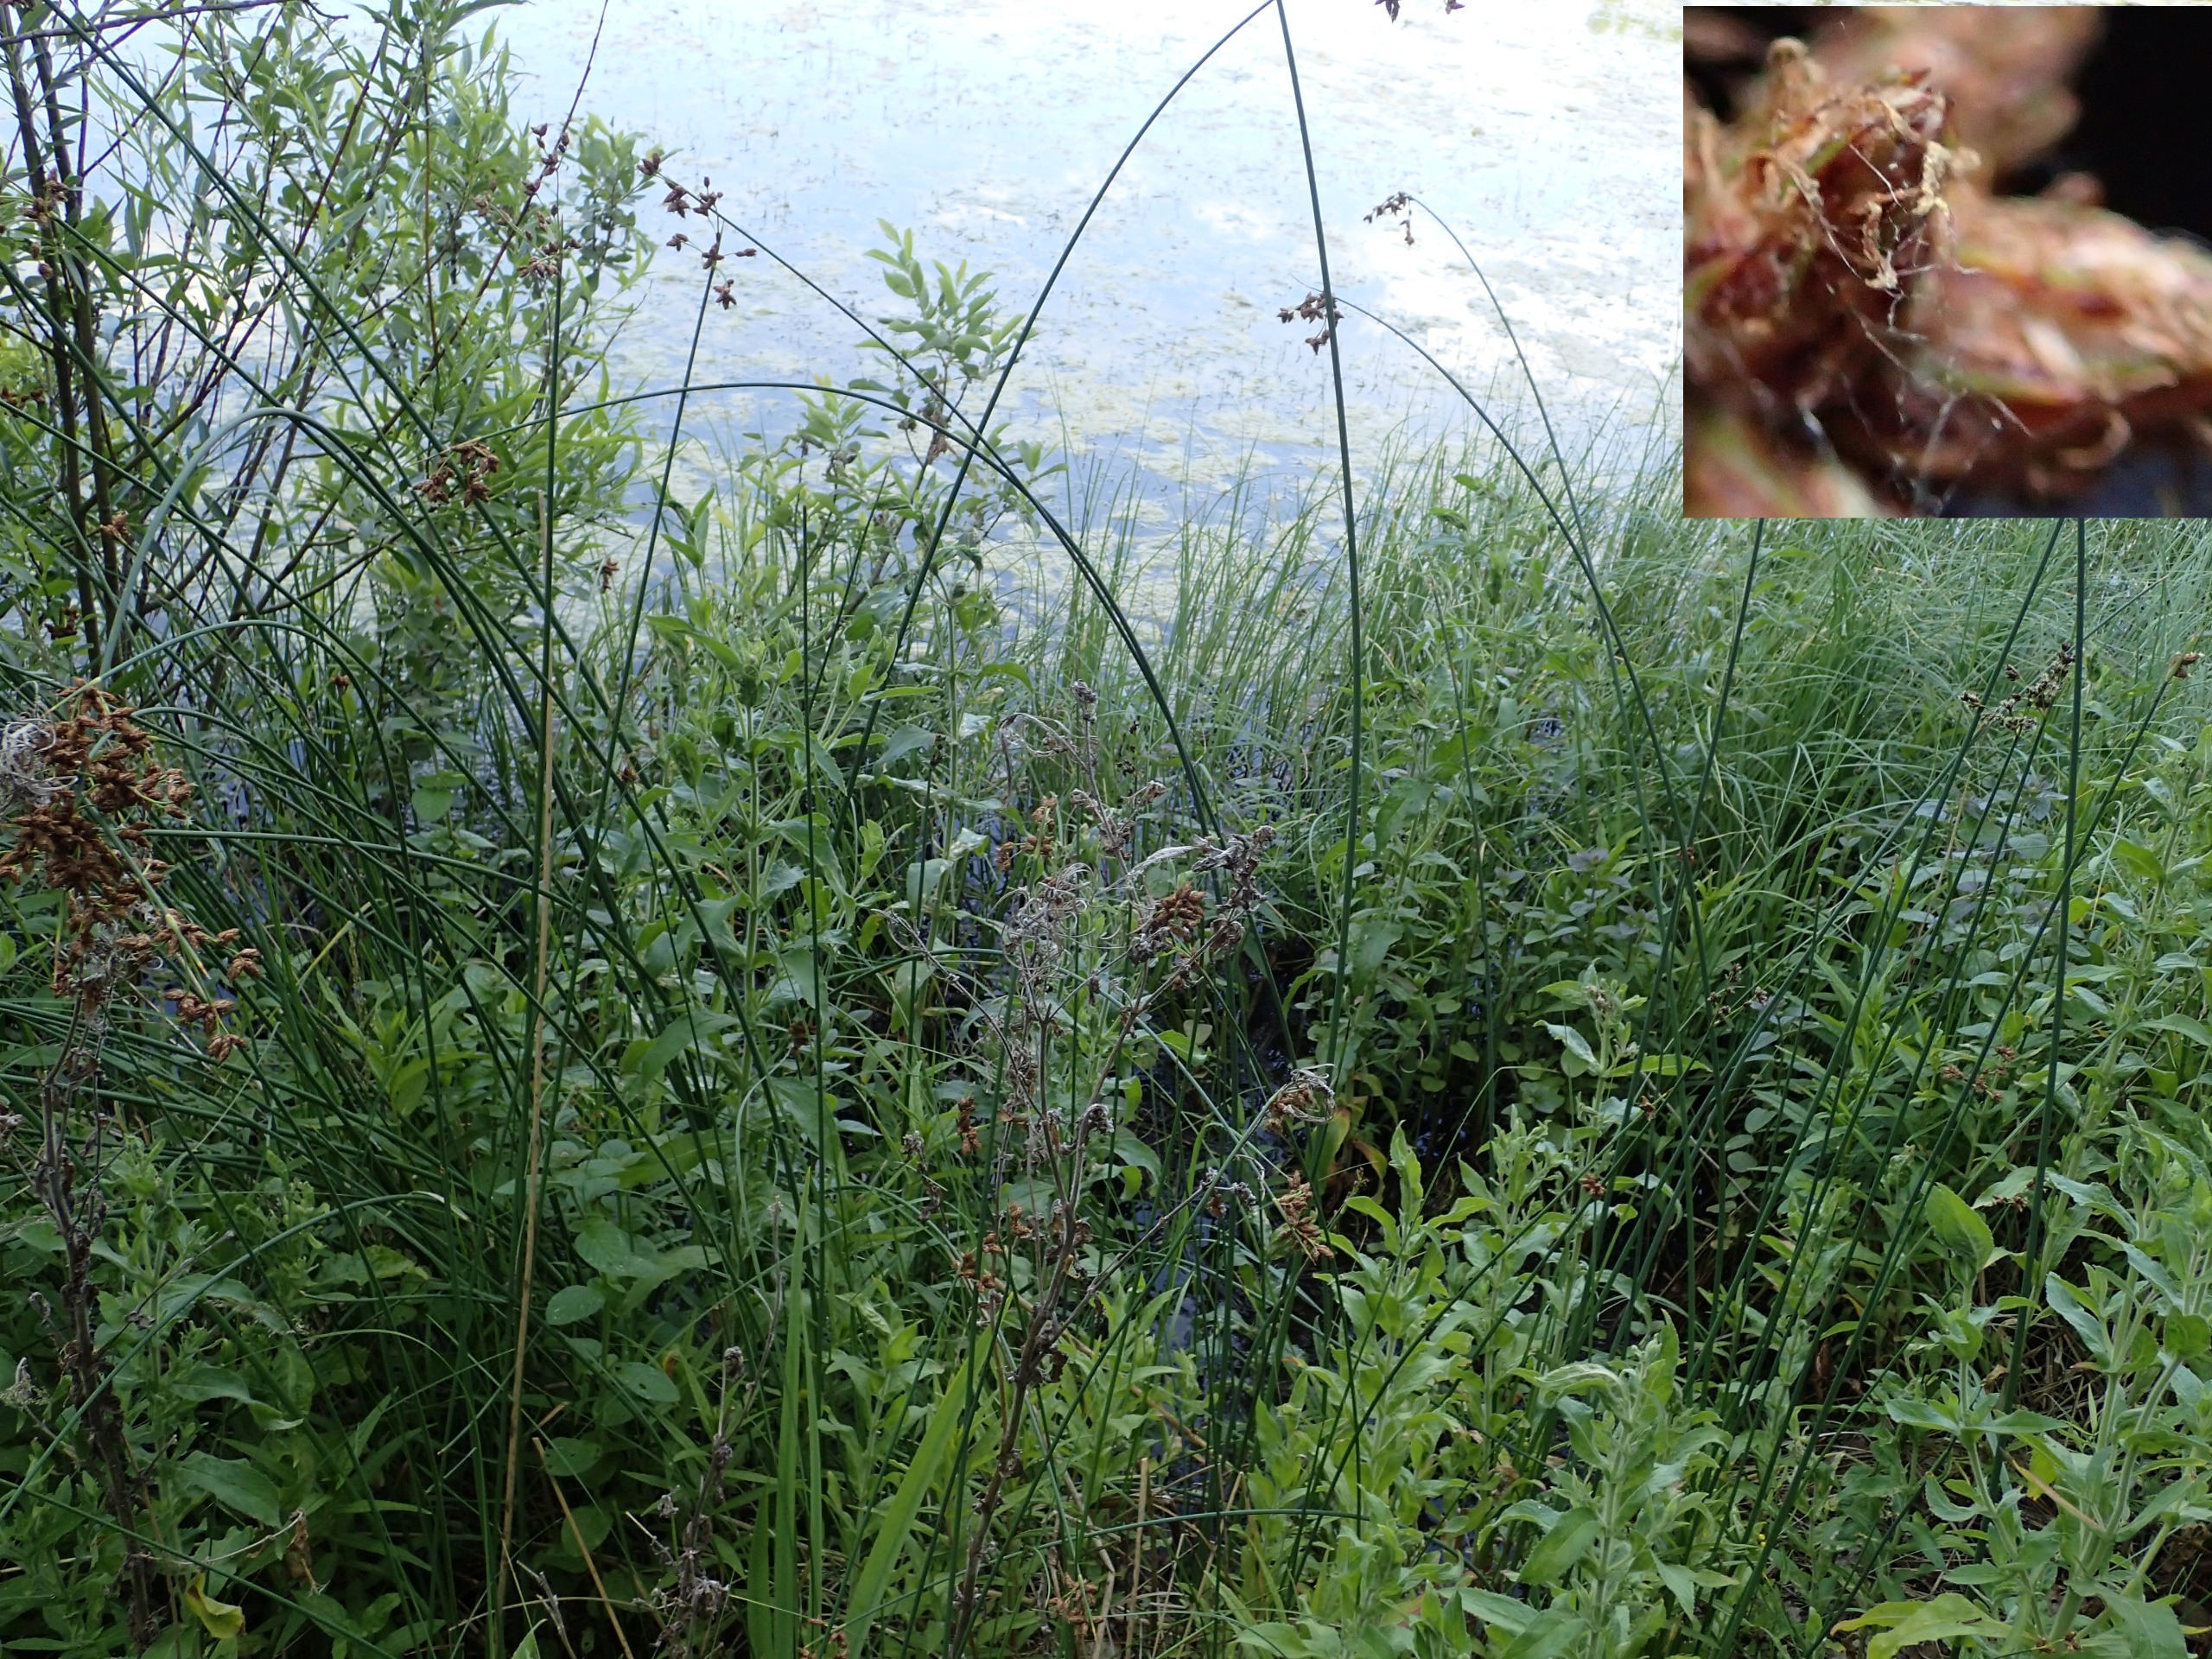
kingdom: Plantae
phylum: Tracheophyta
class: Liliopsida
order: Poales
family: Cyperaceae
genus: Schoenoplectus
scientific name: Schoenoplectus lacustris
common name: Sø-kogleaks
